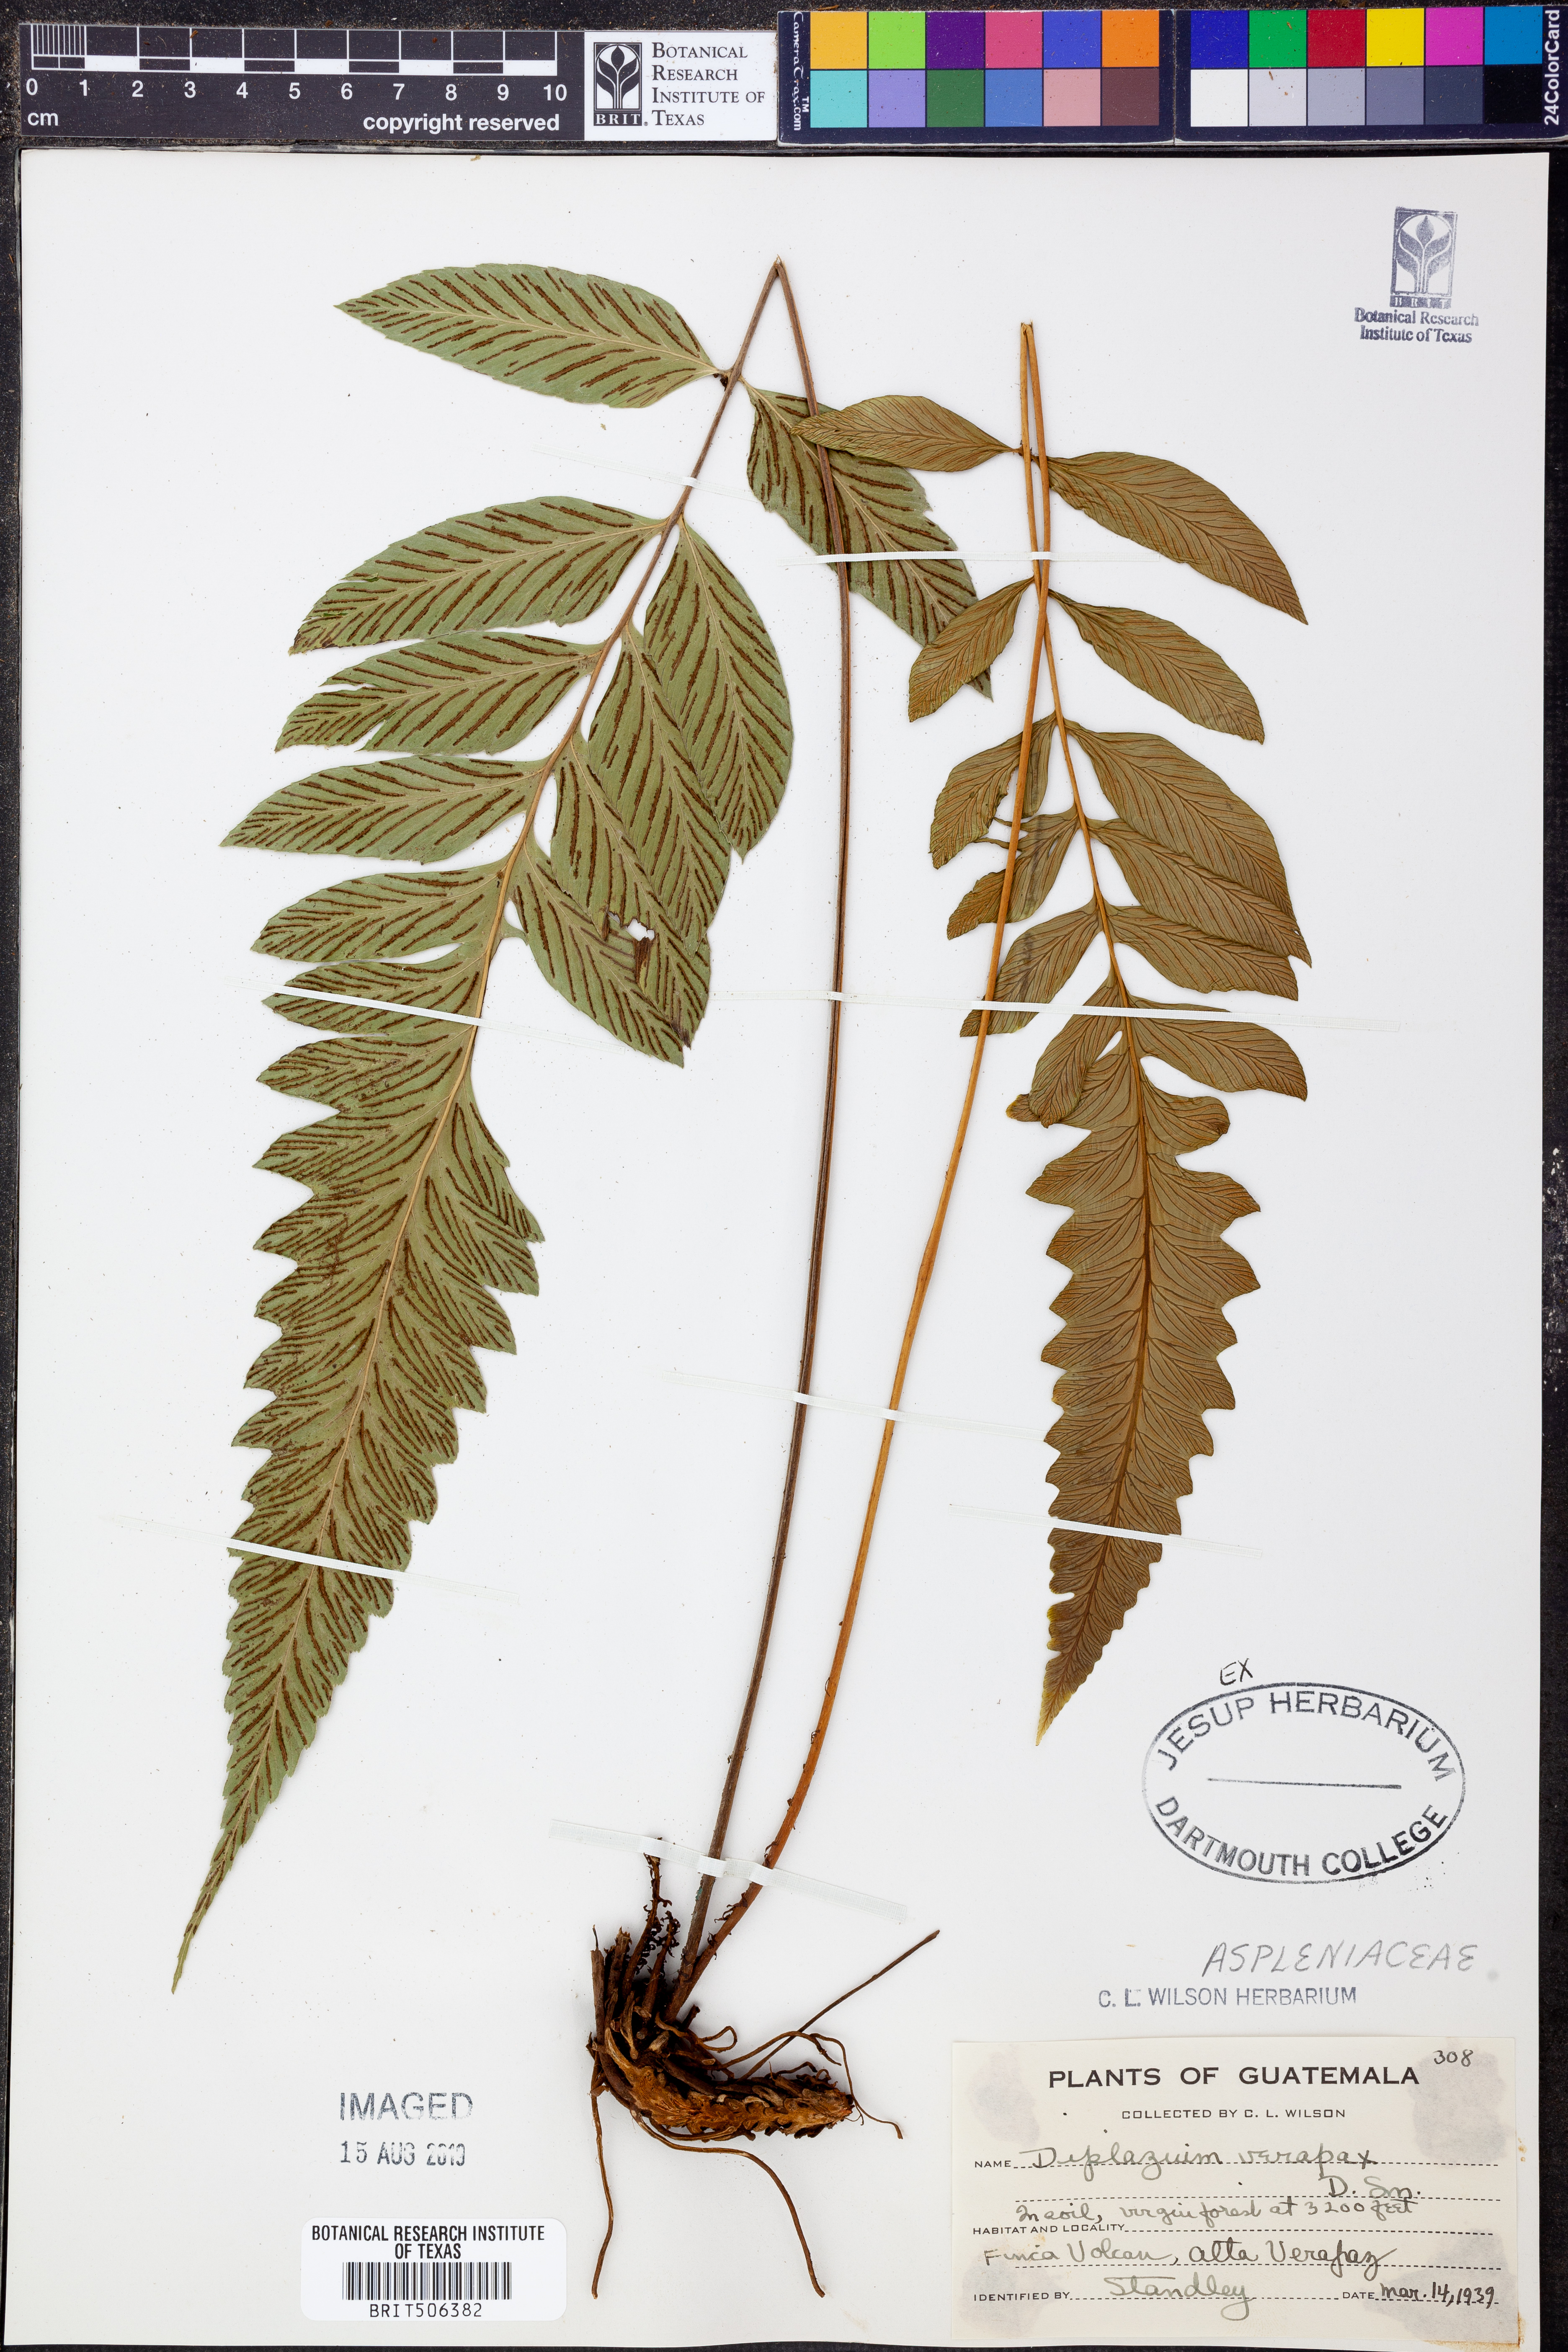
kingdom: Plantae
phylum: Tracheophyta
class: Polypodiopsida
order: Polypodiales
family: Athyriaceae
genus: Diplazium
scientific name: Diplazium verapax
